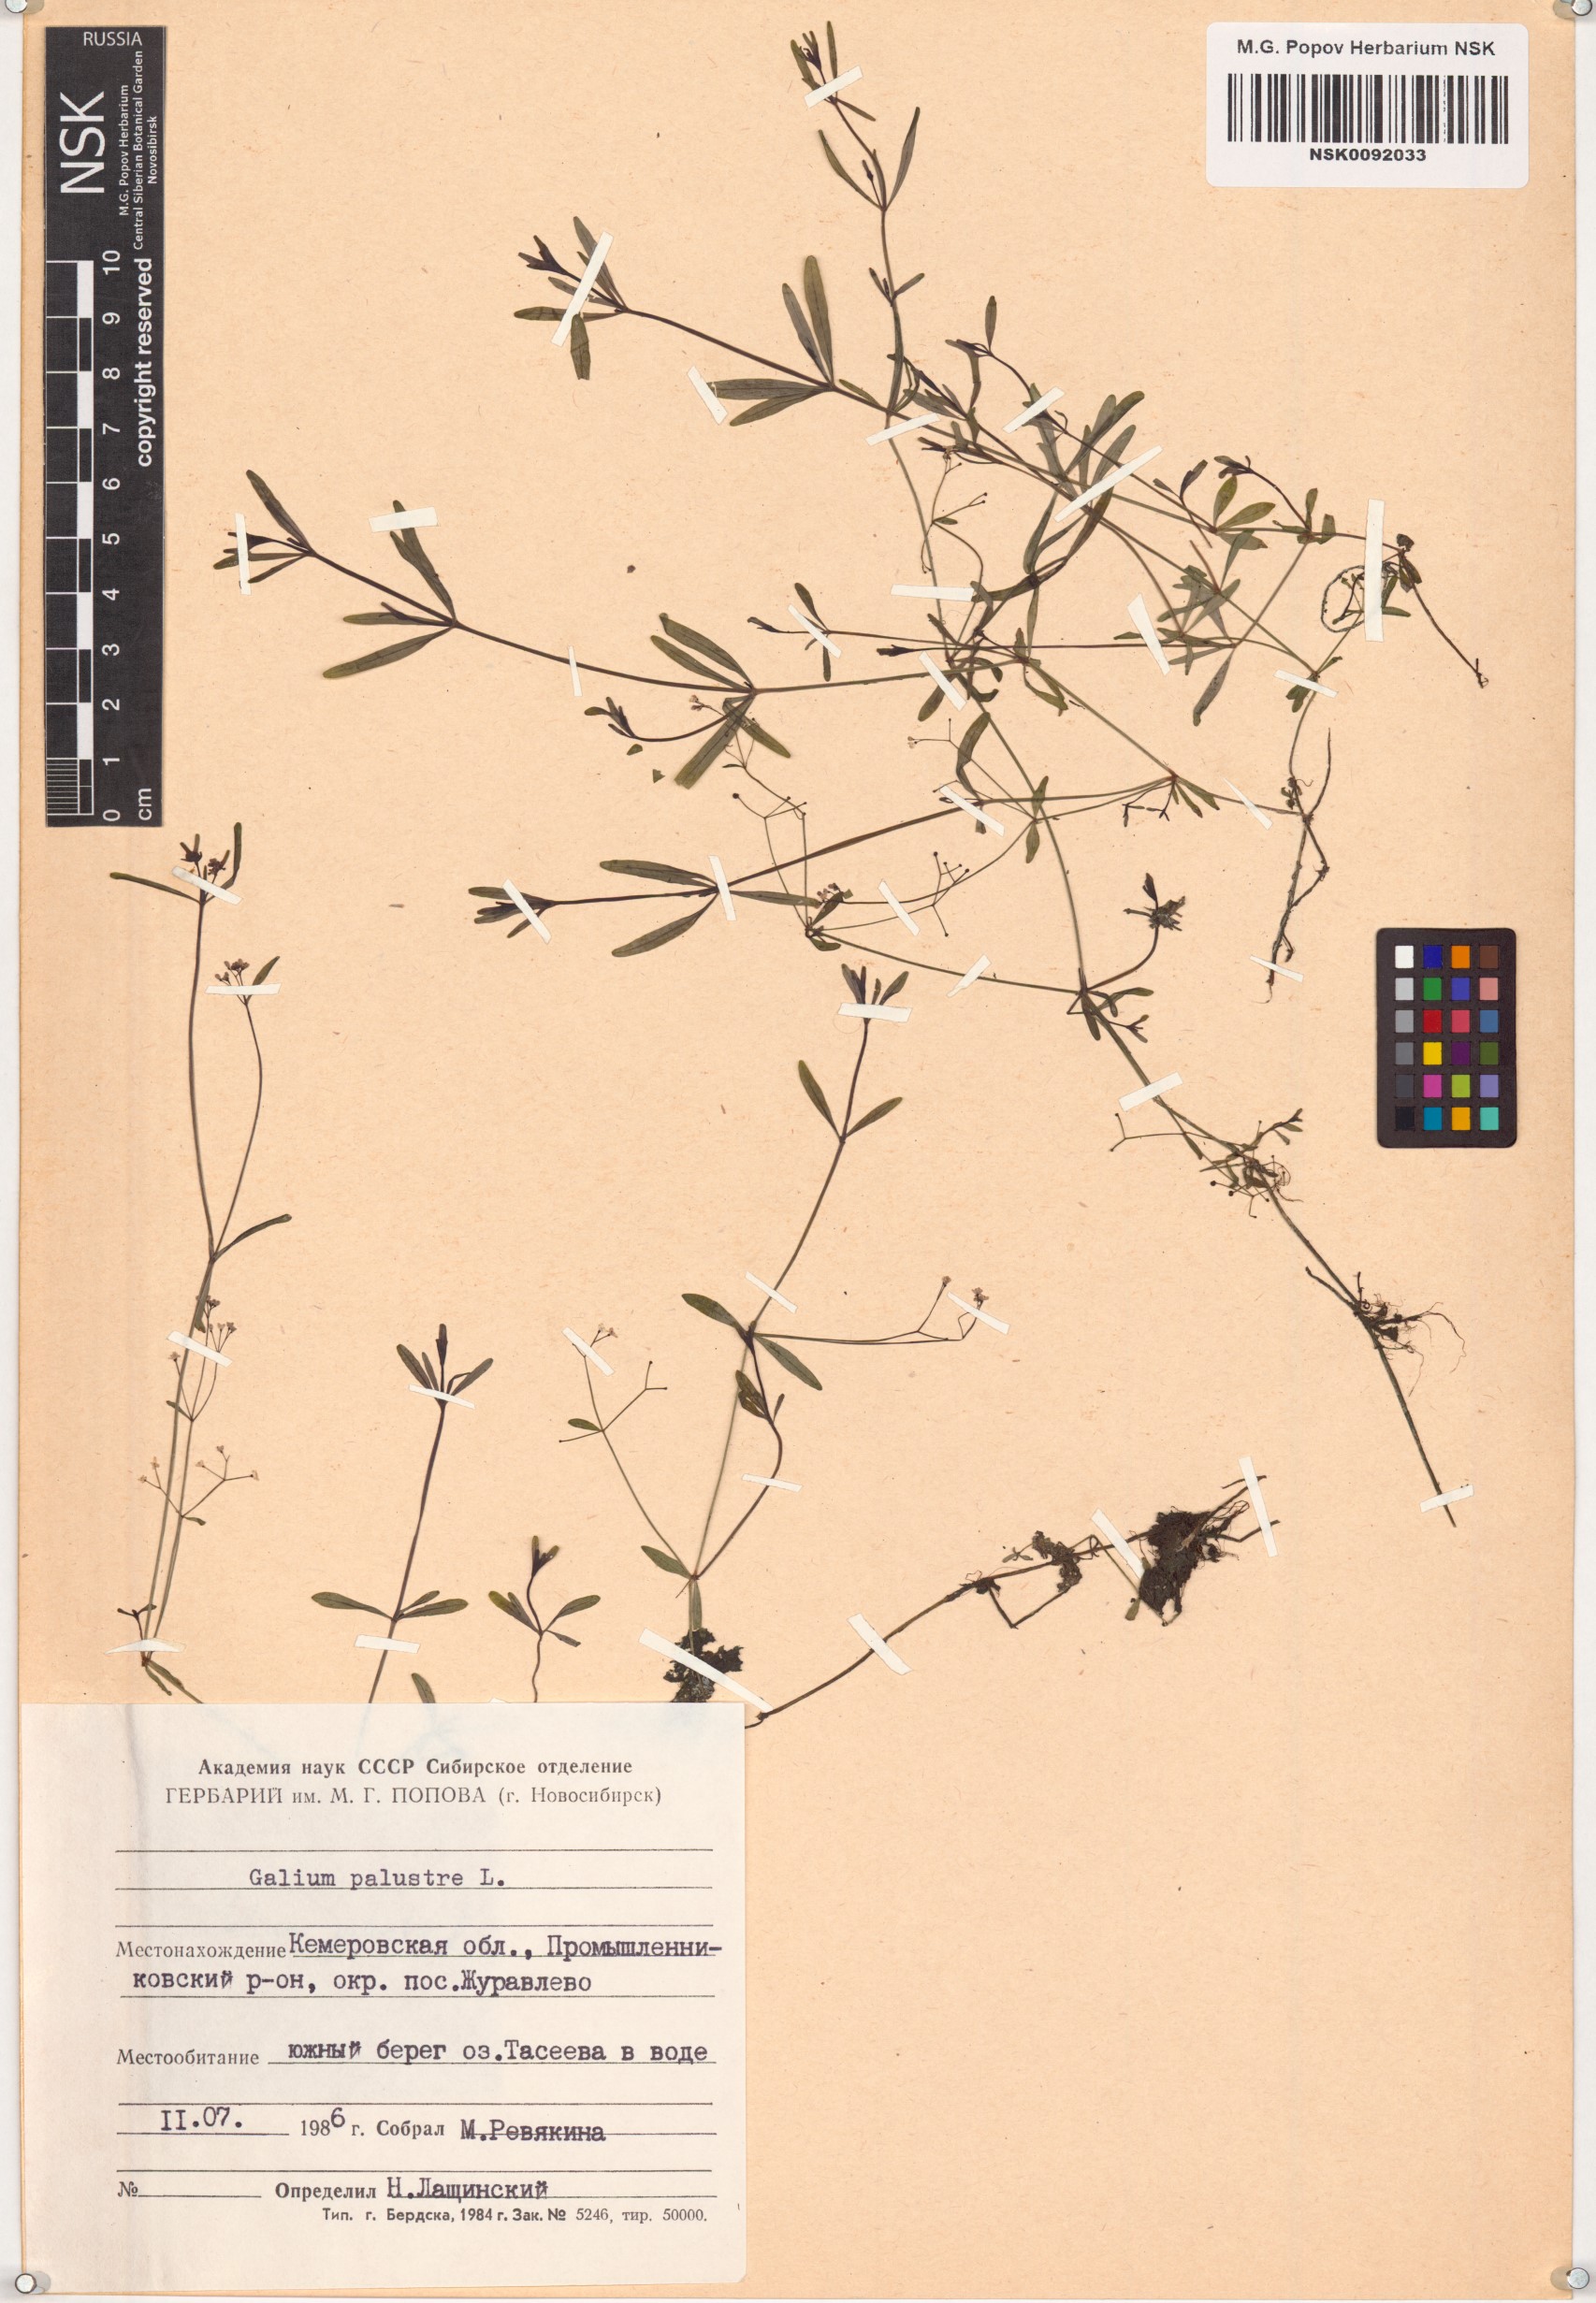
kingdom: Plantae
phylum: Tracheophyta
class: Magnoliopsida
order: Gentianales
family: Rubiaceae
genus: Galium
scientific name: Galium palustre
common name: Common marsh-bedstraw
